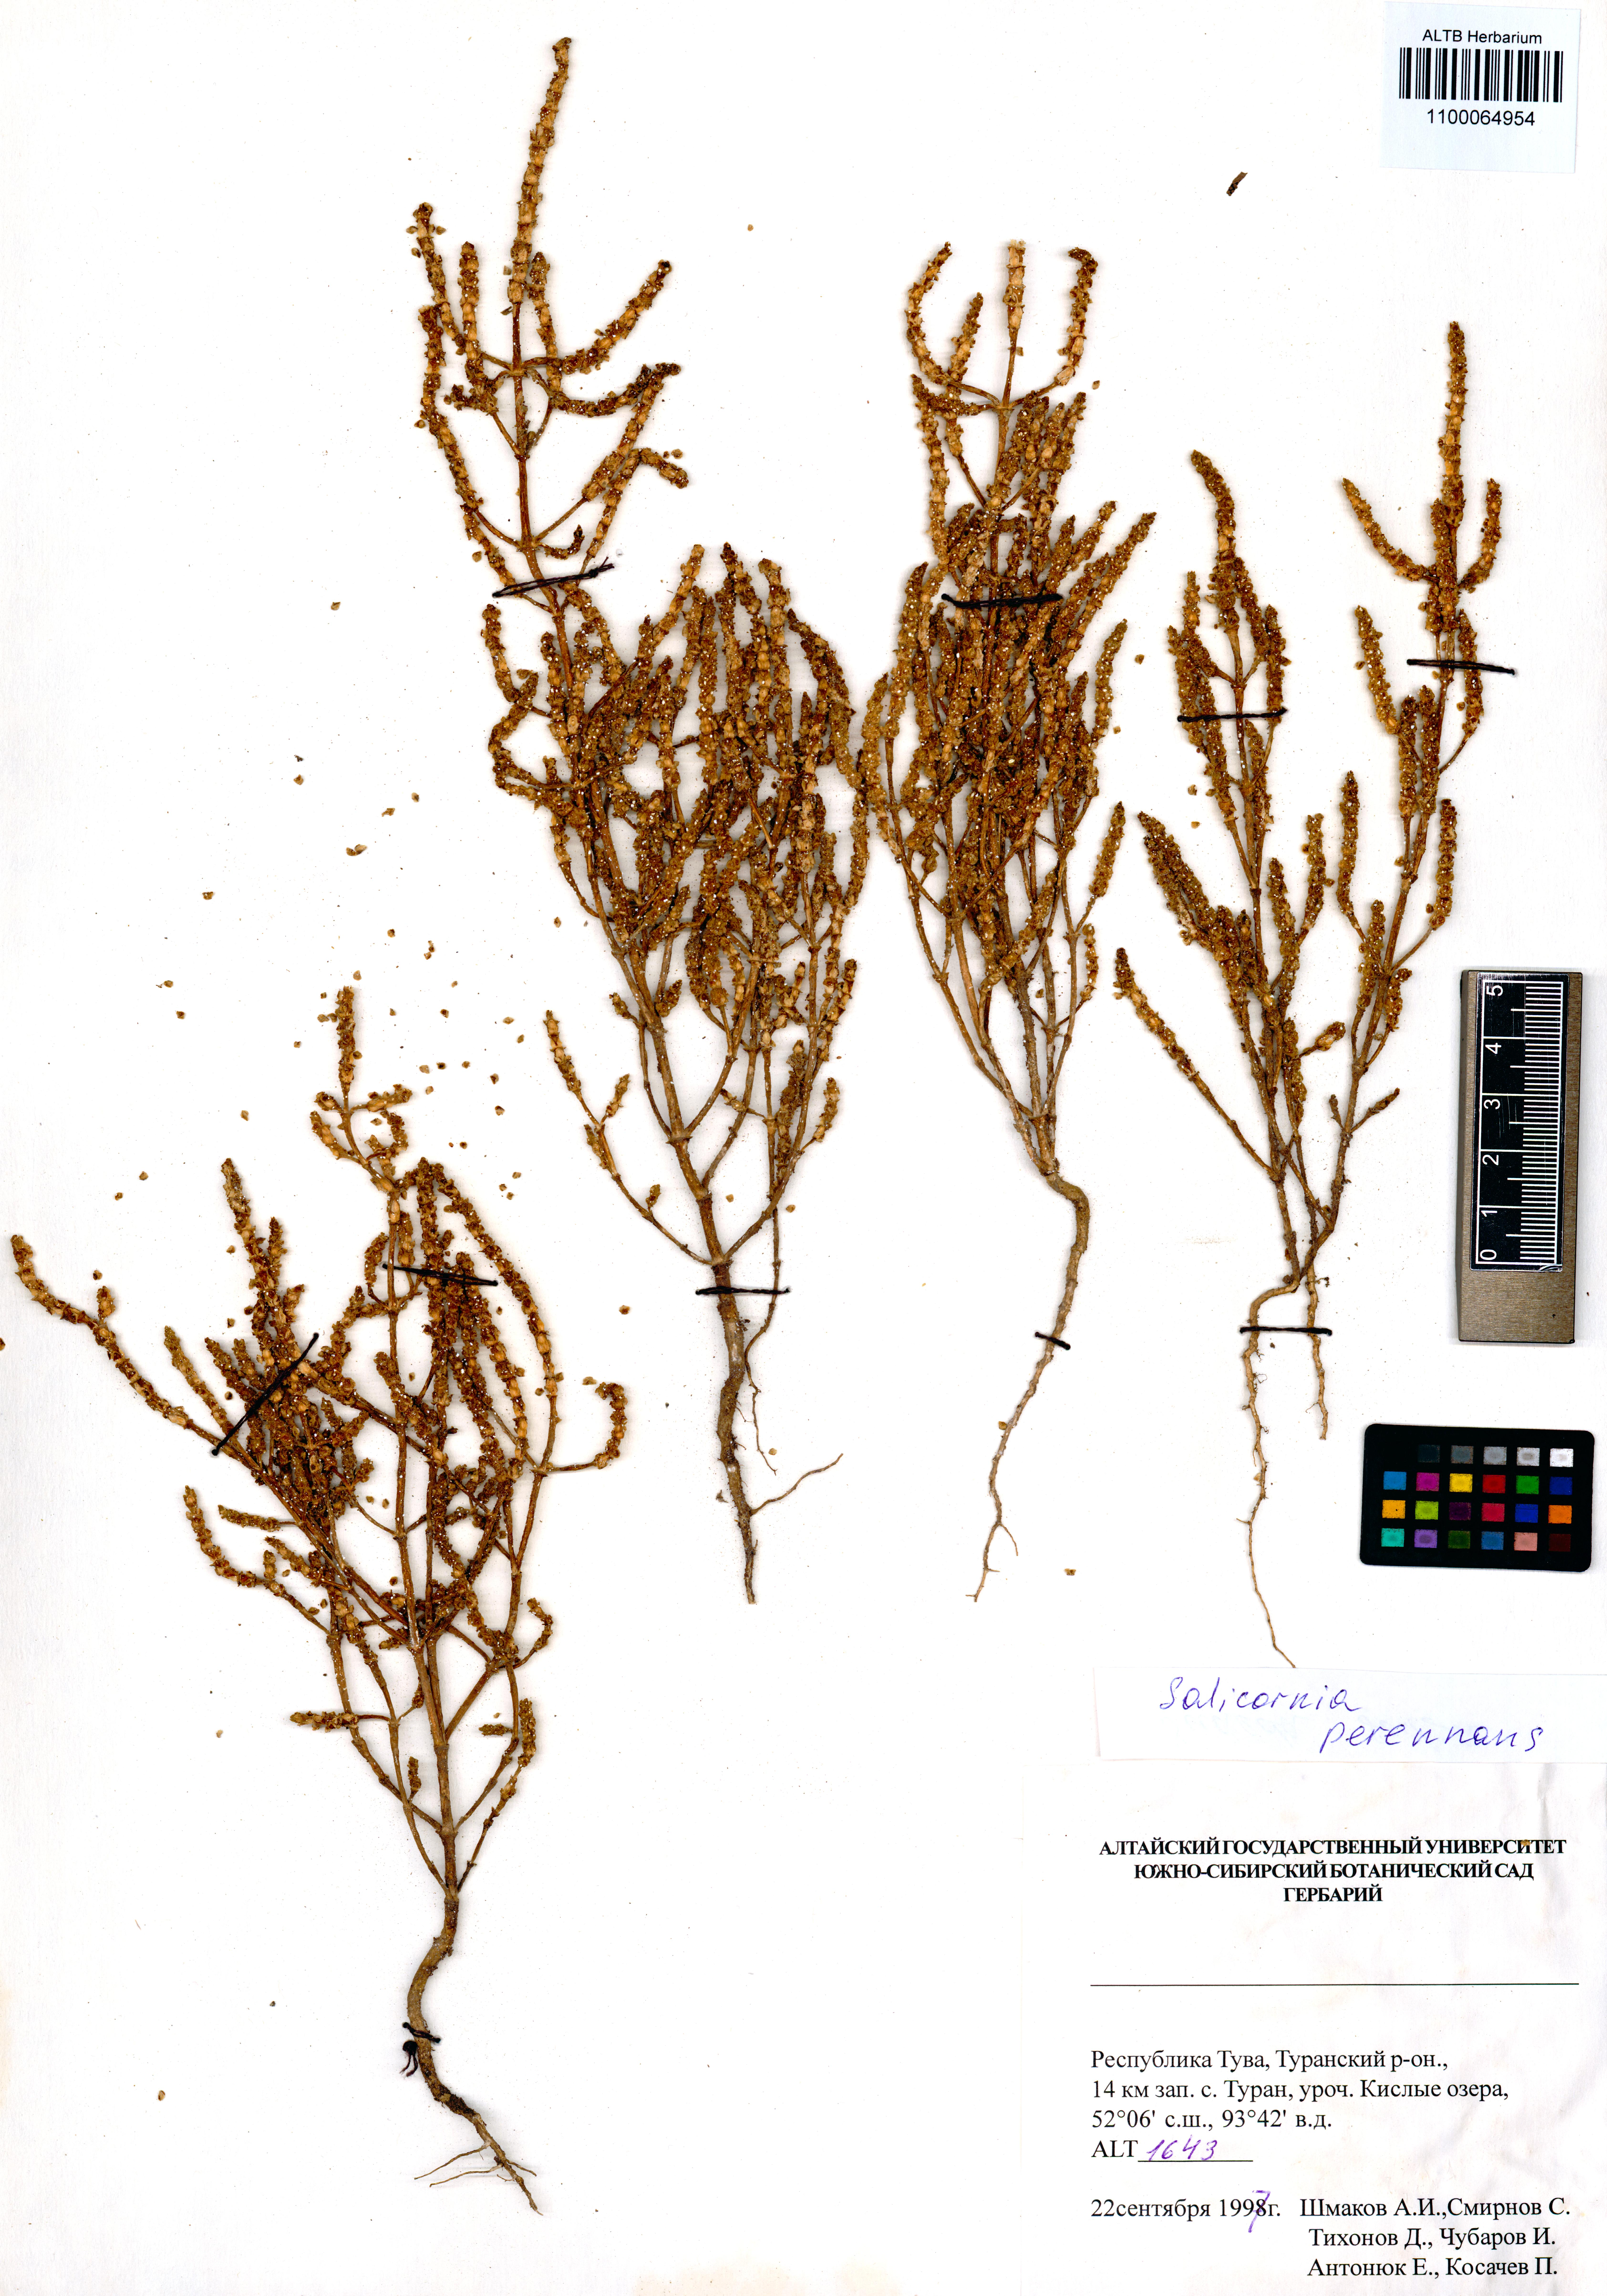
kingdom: Plantae
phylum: Tracheophyta
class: Magnoliopsida
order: Caryophyllales
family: Amaranthaceae
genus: Salicornia
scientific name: Salicornia perennans
